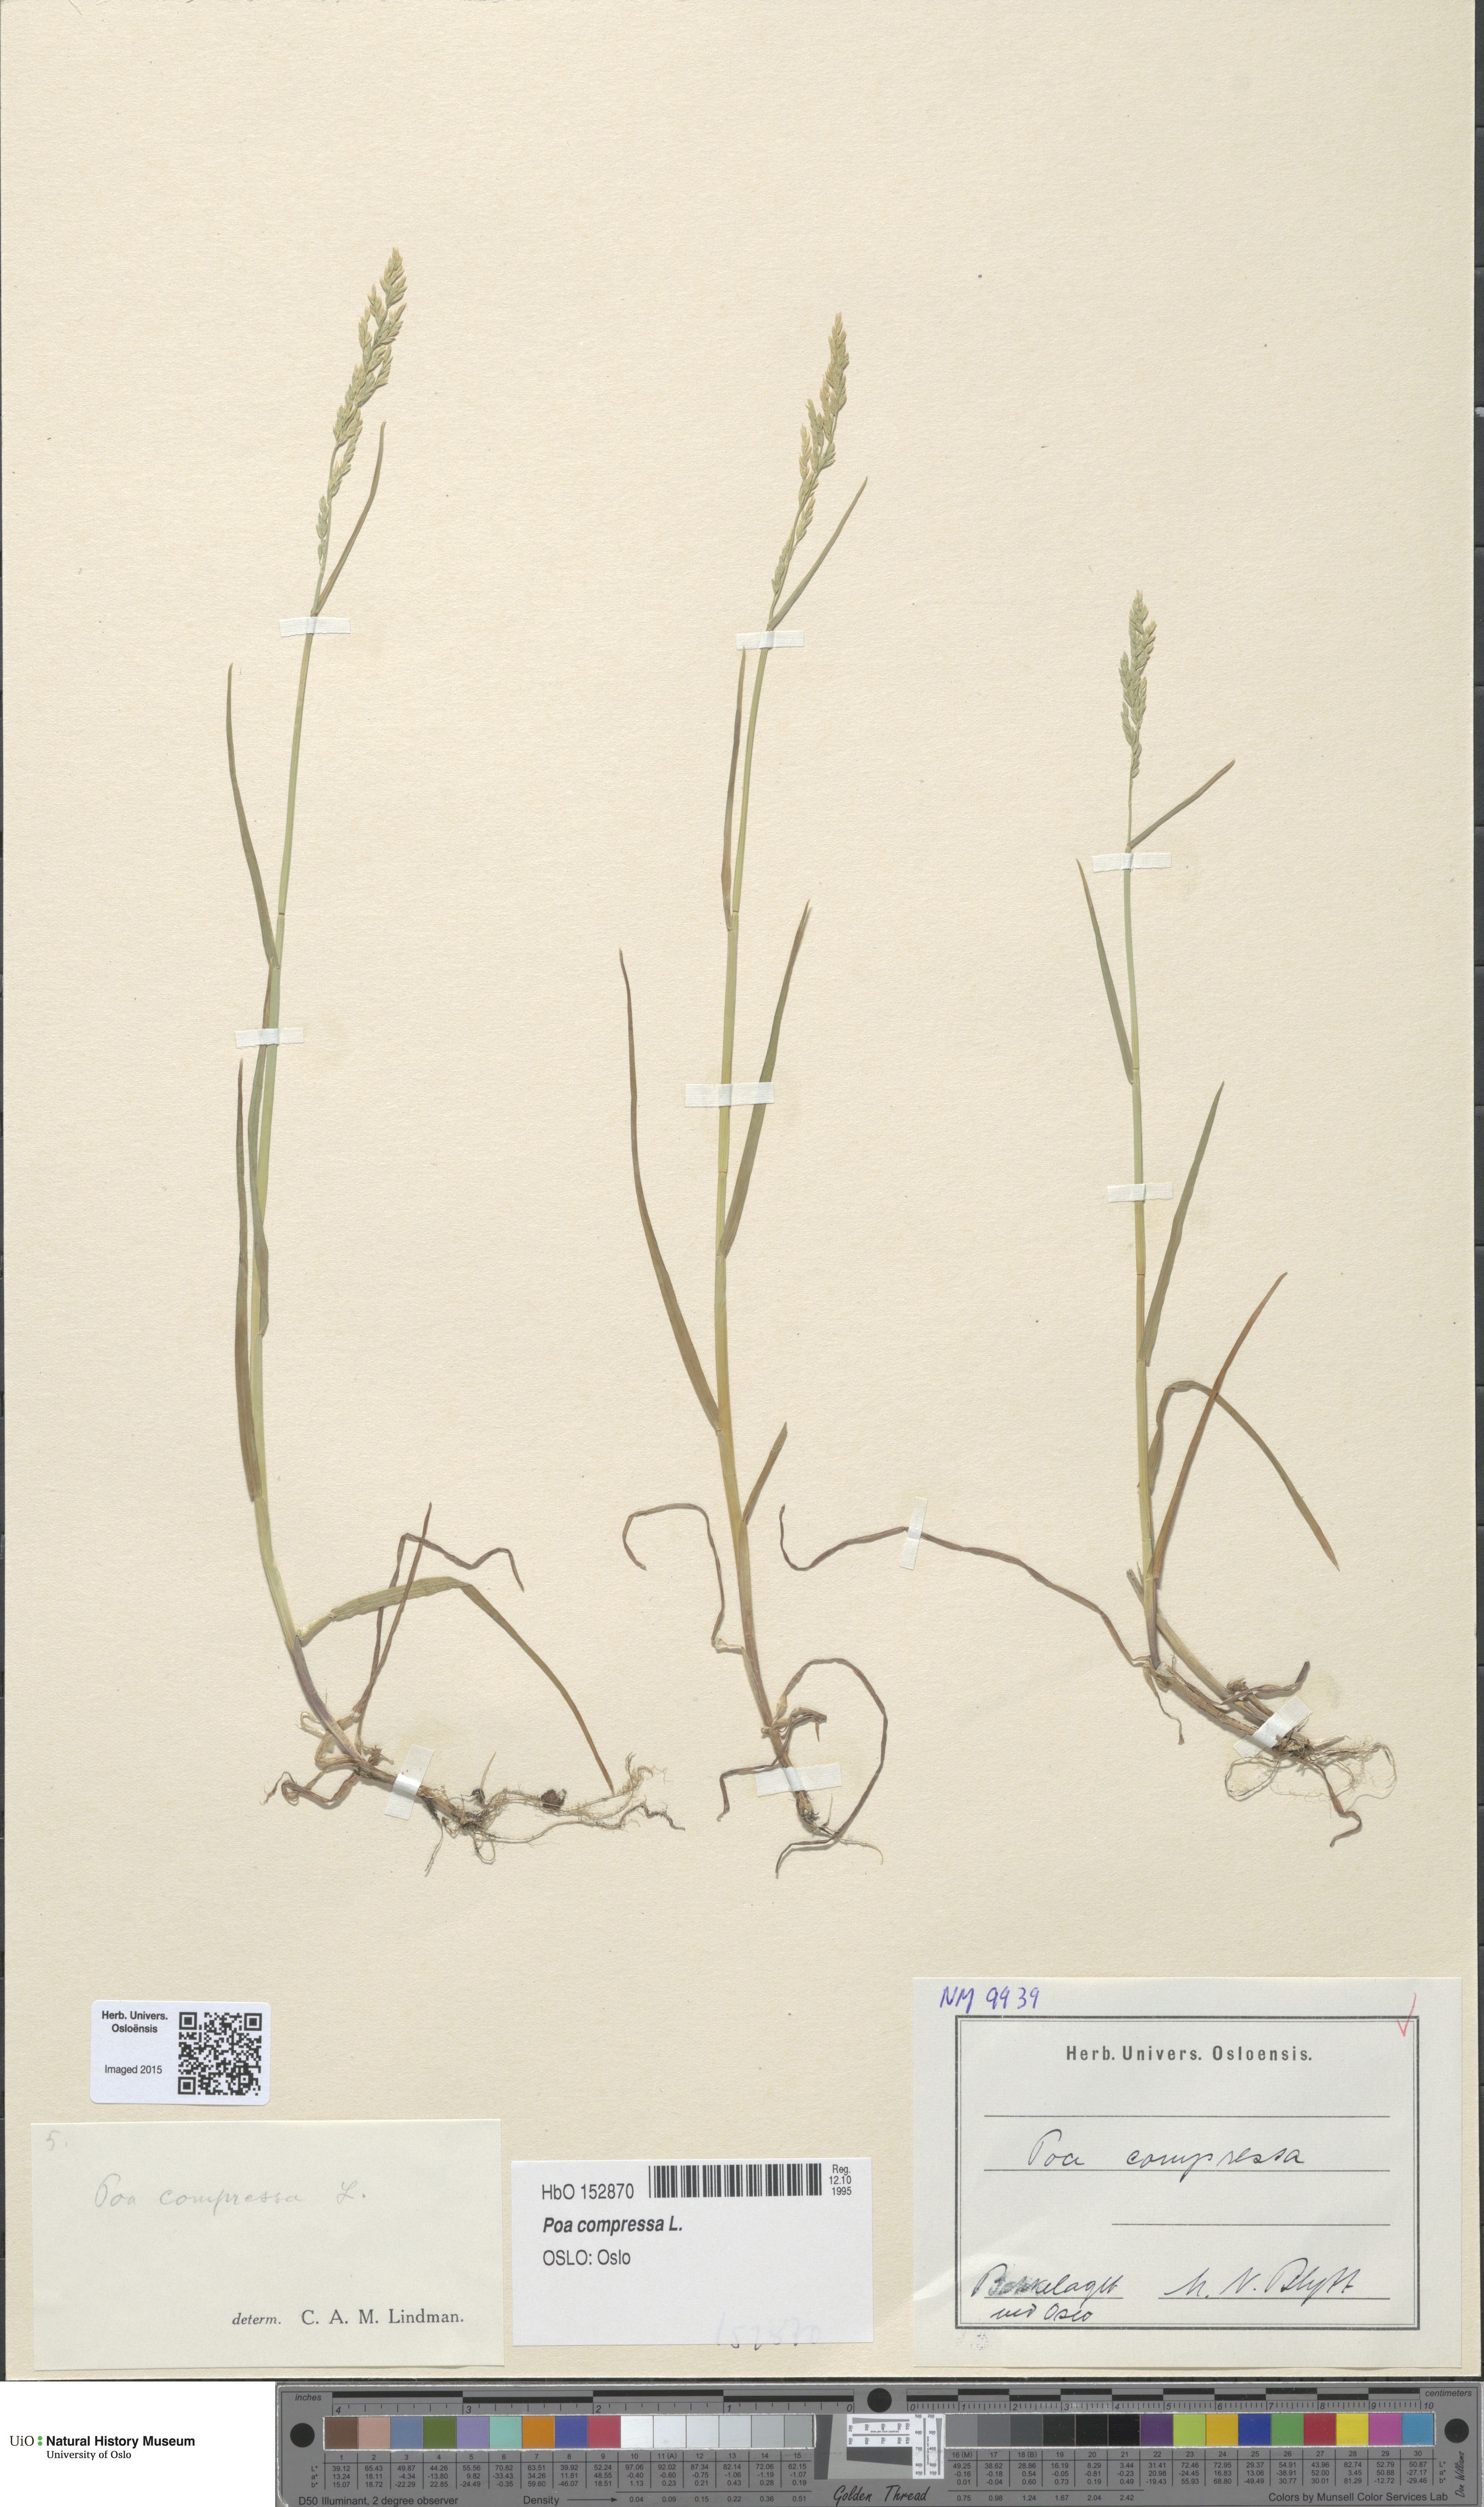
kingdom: Plantae
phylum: Tracheophyta
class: Liliopsida
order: Poales
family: Poaceae
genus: Poa
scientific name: Poa compressa
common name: Canada bluegrass
